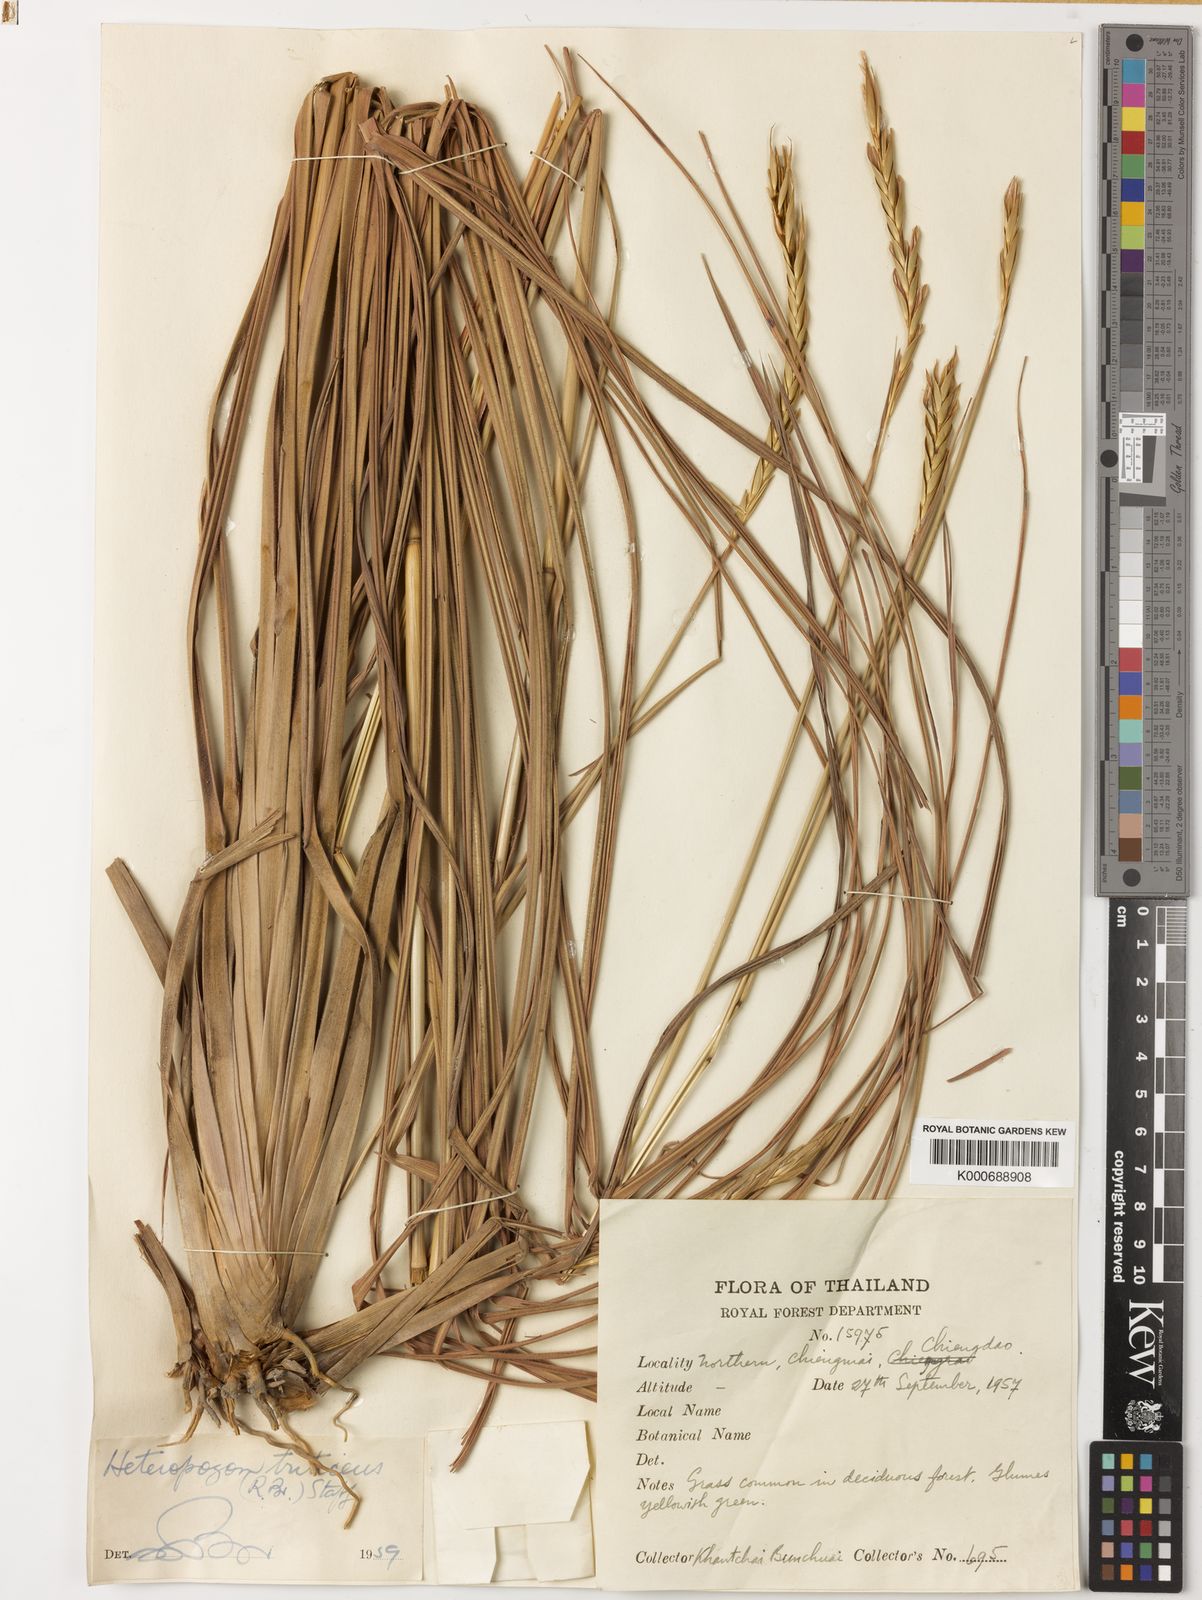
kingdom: Plantae
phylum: Tracheophyta
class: Liliopsida
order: Poales
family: Poaceae
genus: Heteropogon
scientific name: Heteropogon triticeus
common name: Sugar grass
